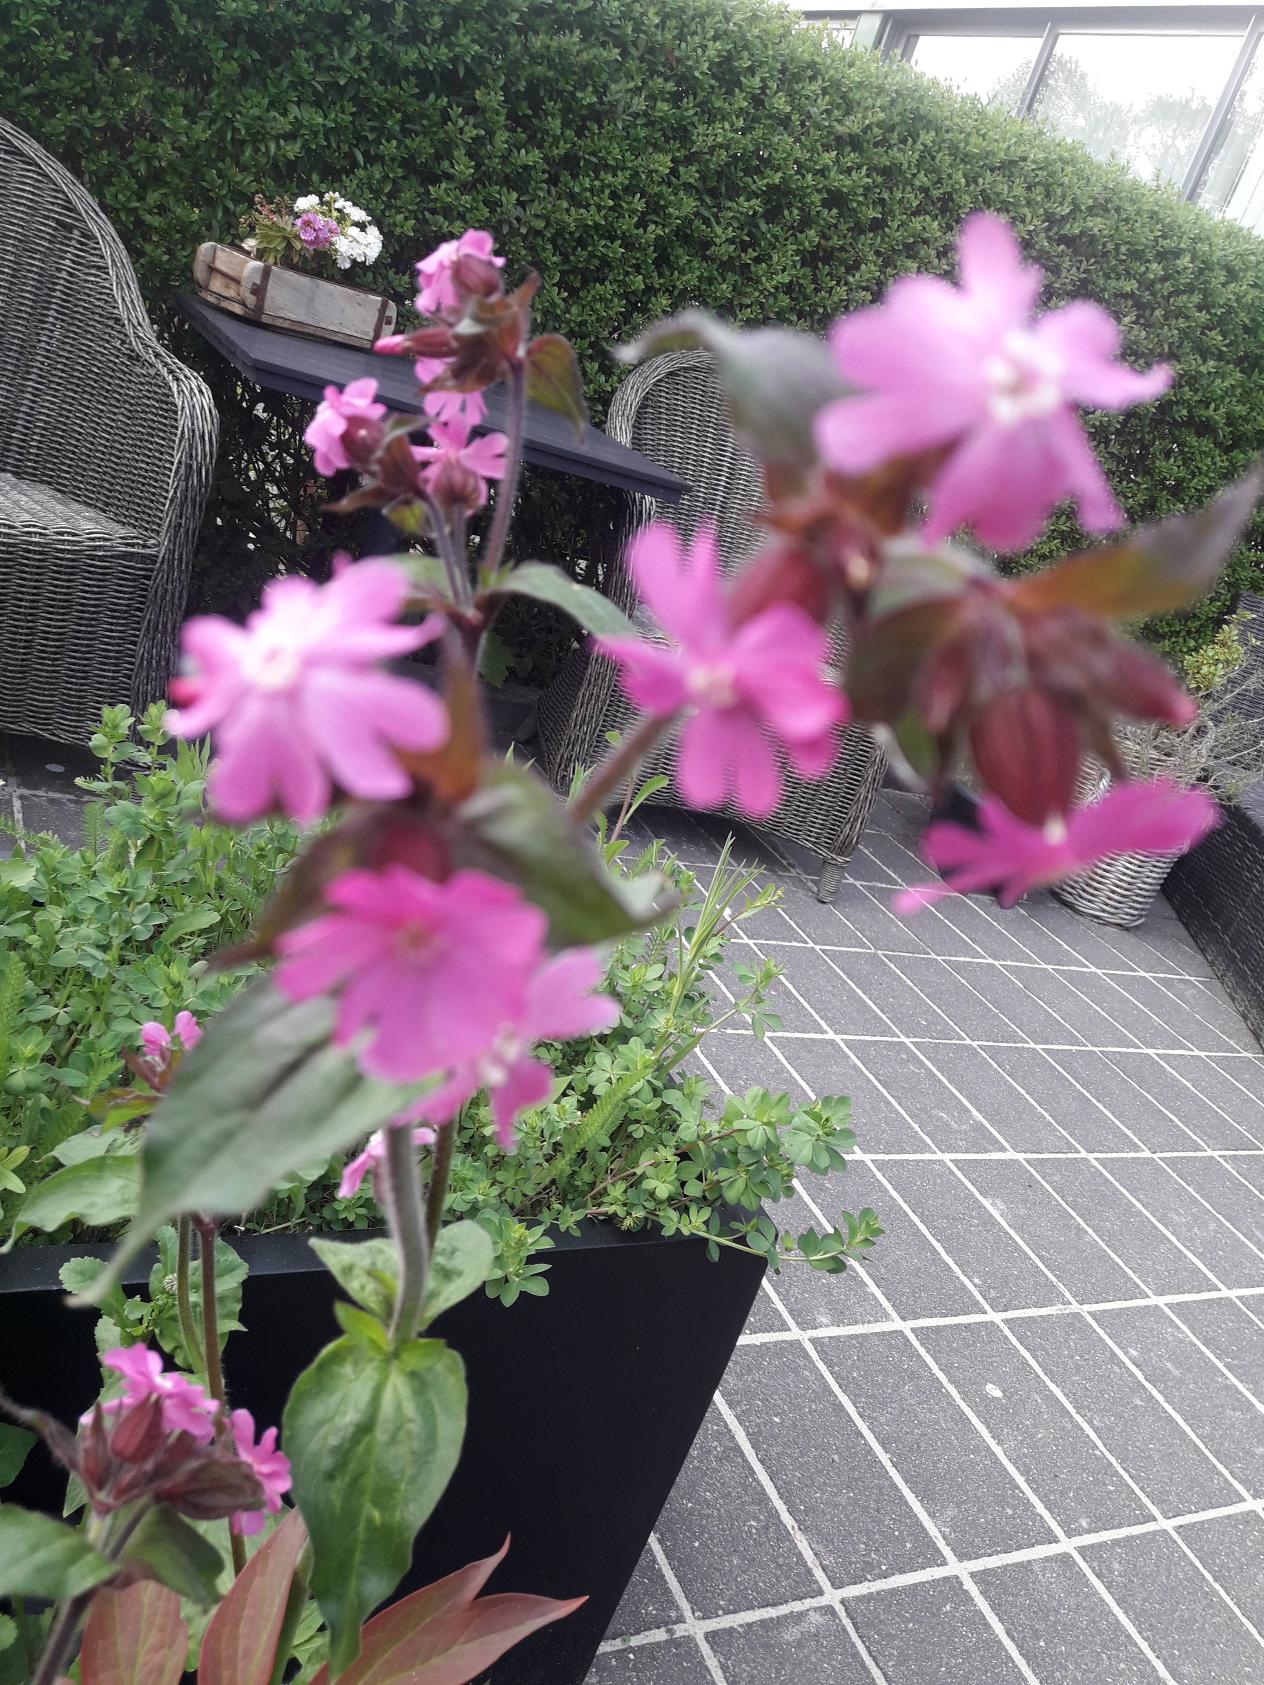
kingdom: Plantae
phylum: Tracheophyta
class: Magnoliopsida
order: Caryophyllales
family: Caryophyllaceae
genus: Silene
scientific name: Silene dioica
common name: Dagpragtstjerne
